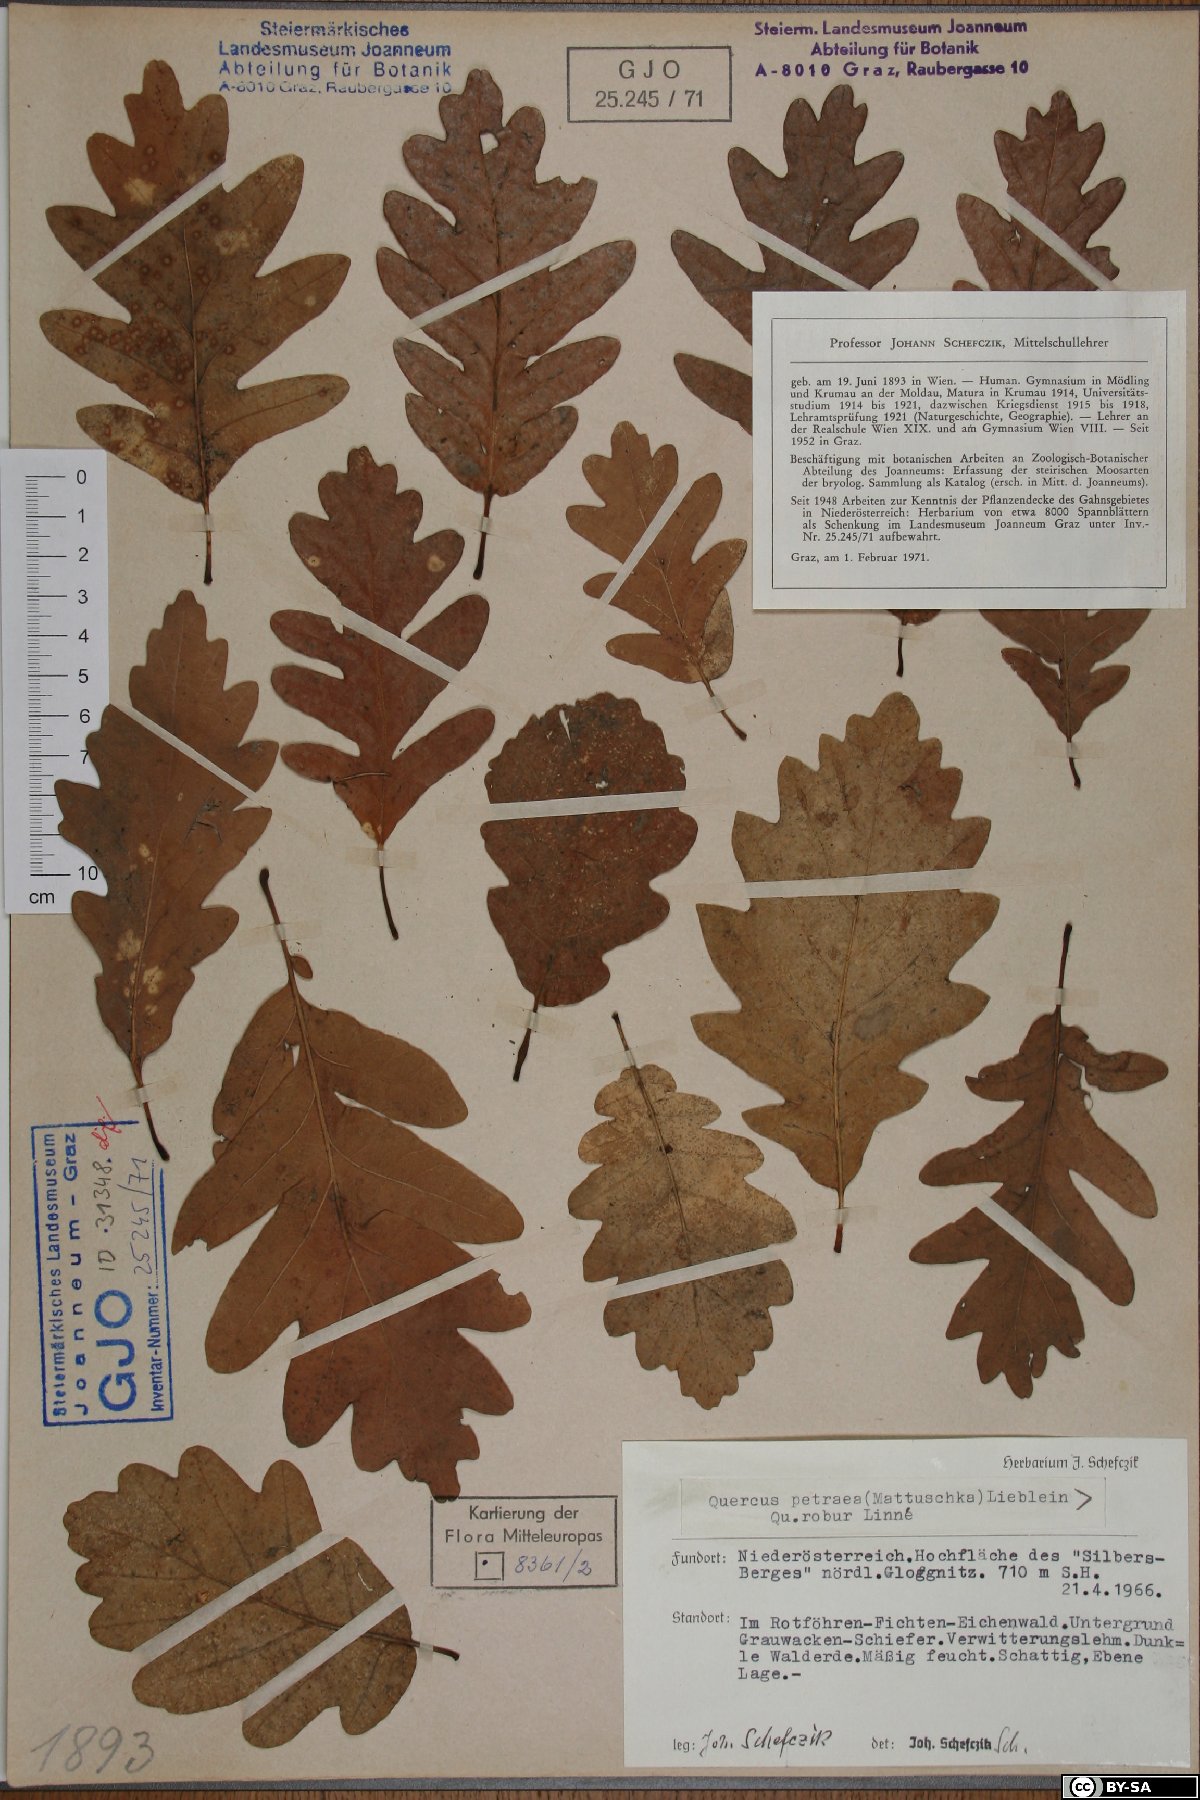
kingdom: Plantae
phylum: Tracheophyta
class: Magnoliopsida
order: Fagales
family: Fagaceae
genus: Quercus
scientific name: Quercus petraea
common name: Sessile oak
